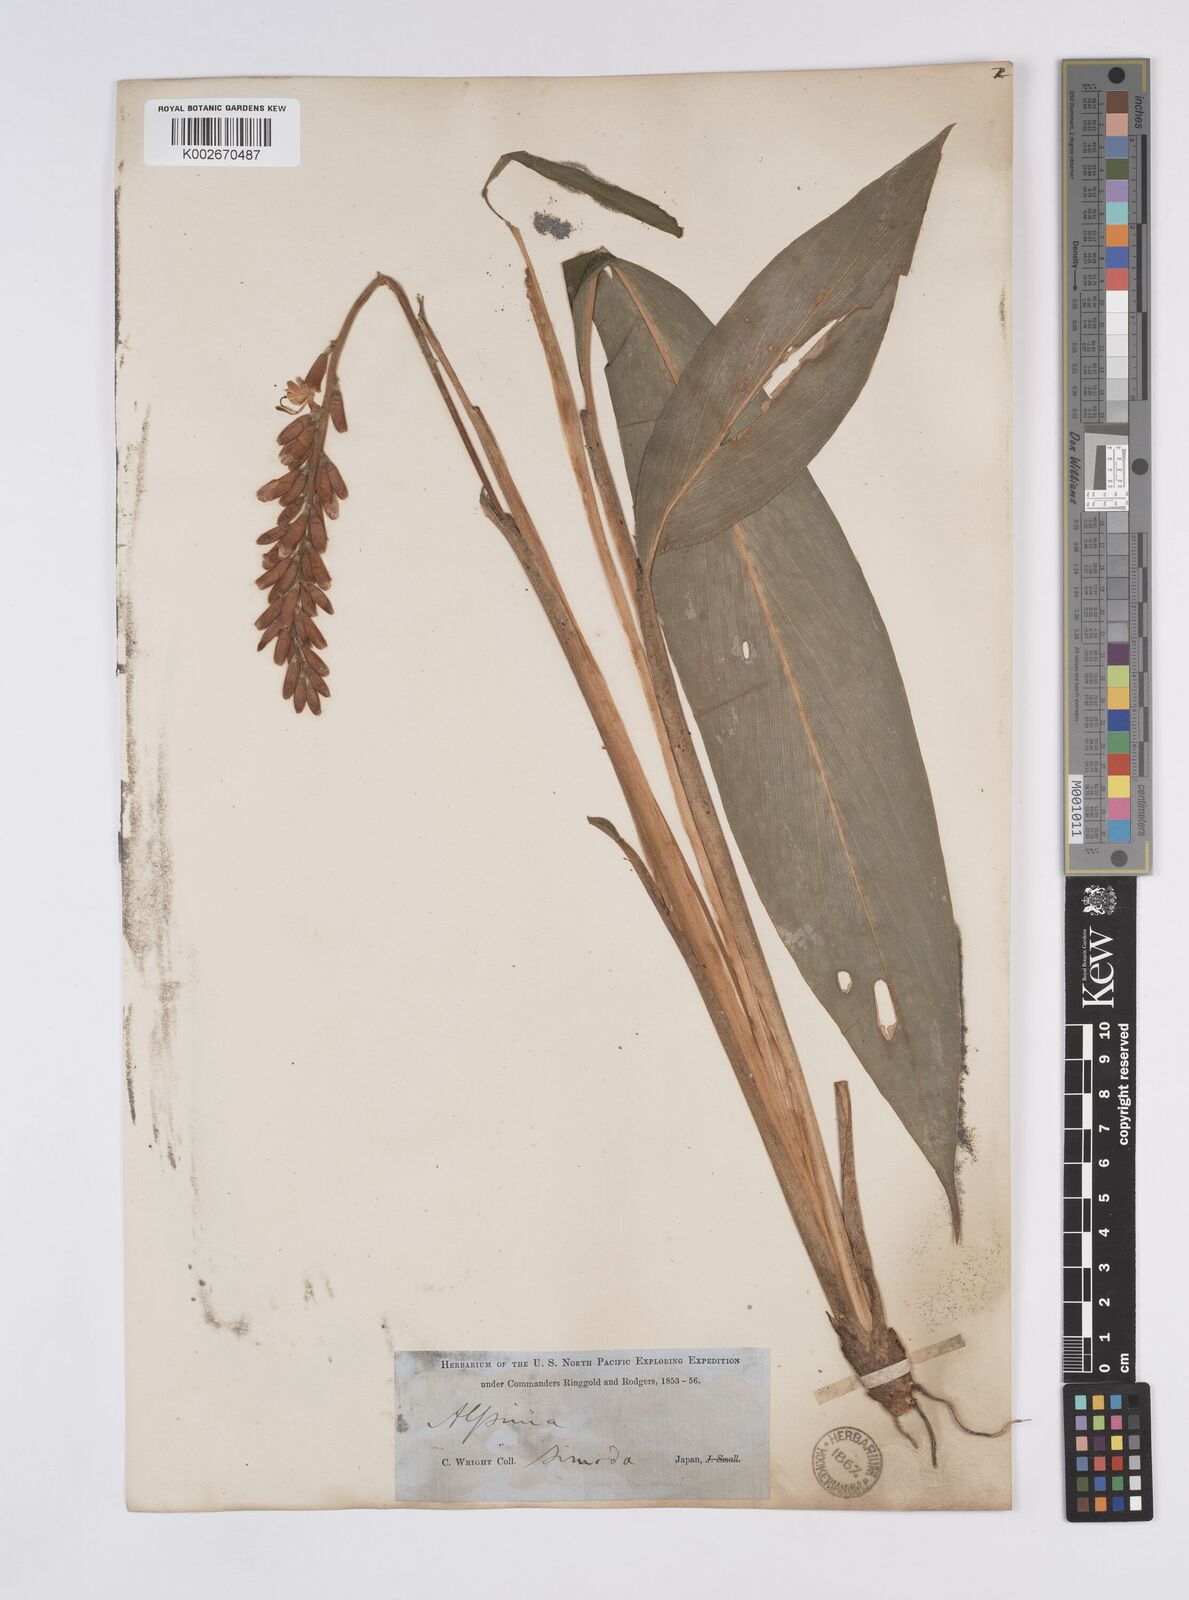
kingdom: Plantae
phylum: Tracheophyta
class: Liliopsida
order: Zingiberales
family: Zingiberaceae
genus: Alpinia
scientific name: Alpinia japonica
